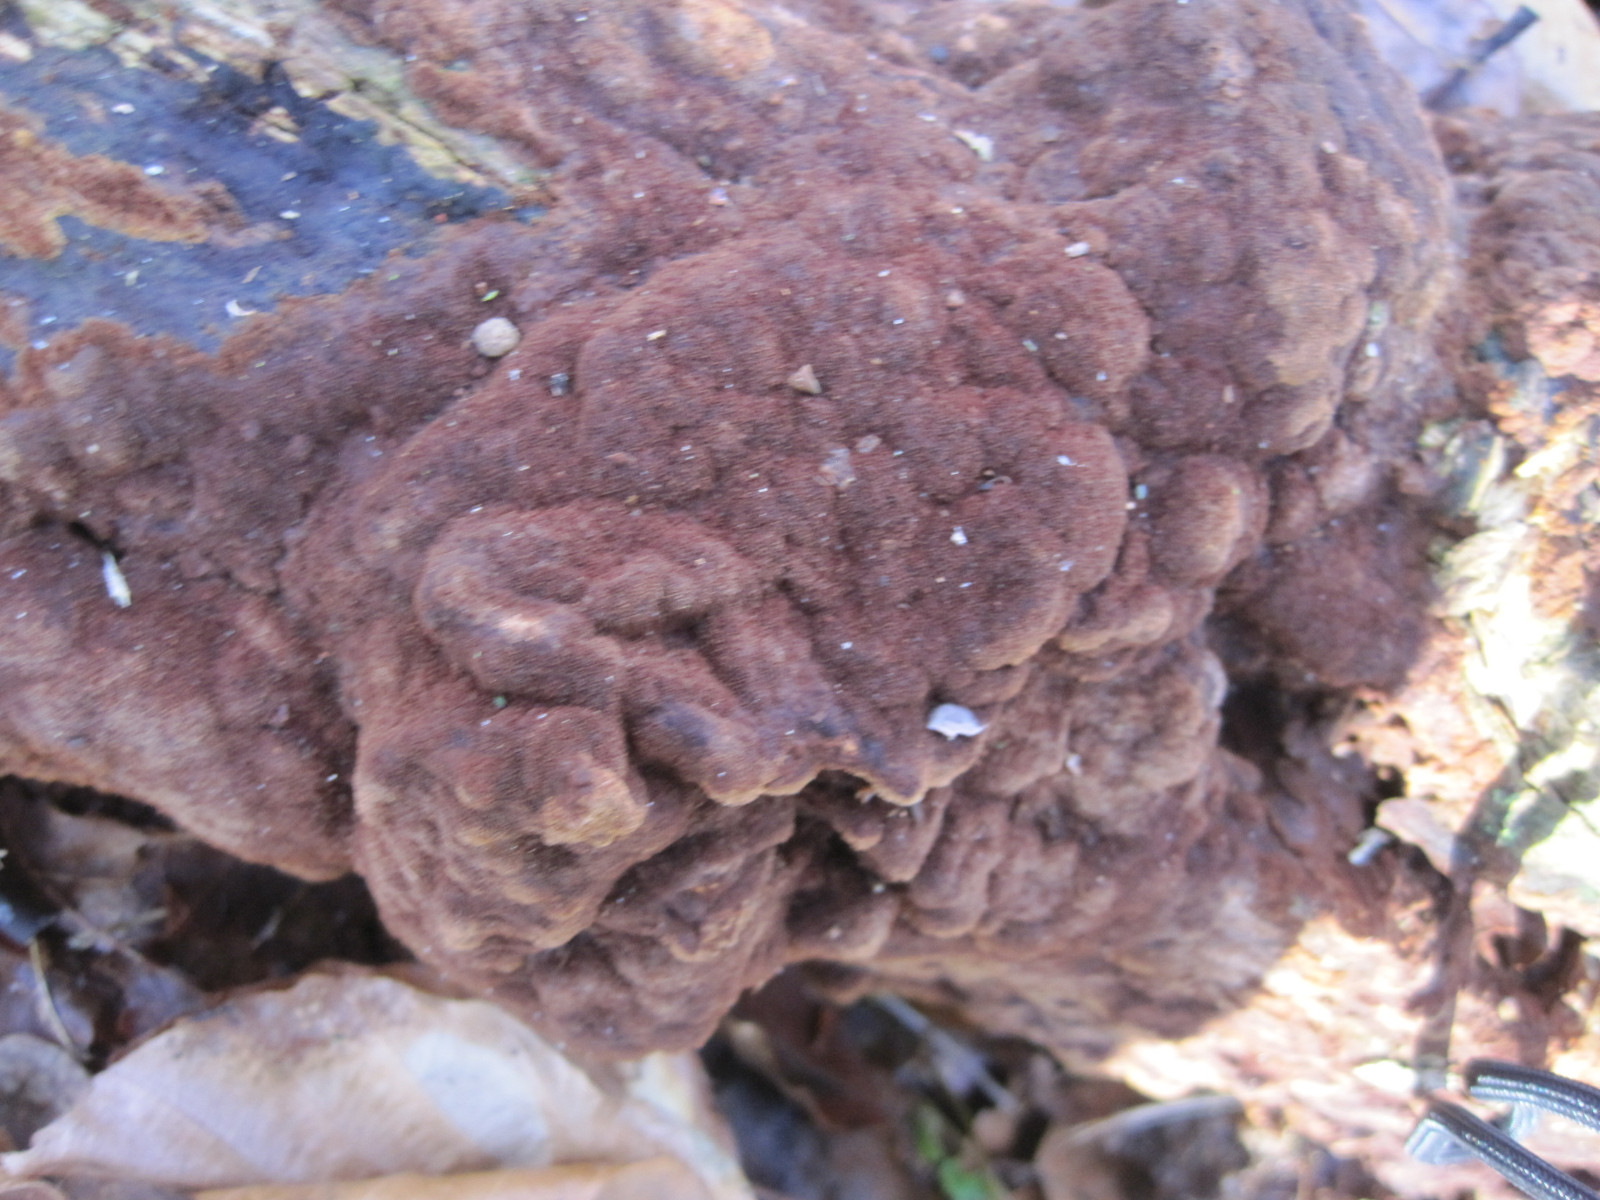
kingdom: Fungi
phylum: Basidiomycota
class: Agaricomycetes
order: Hymenochaetales
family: Hymenochaetaceae
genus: Fuscoporia
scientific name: Fuscoporia ferrea
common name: skorpe-ildporesvamp
